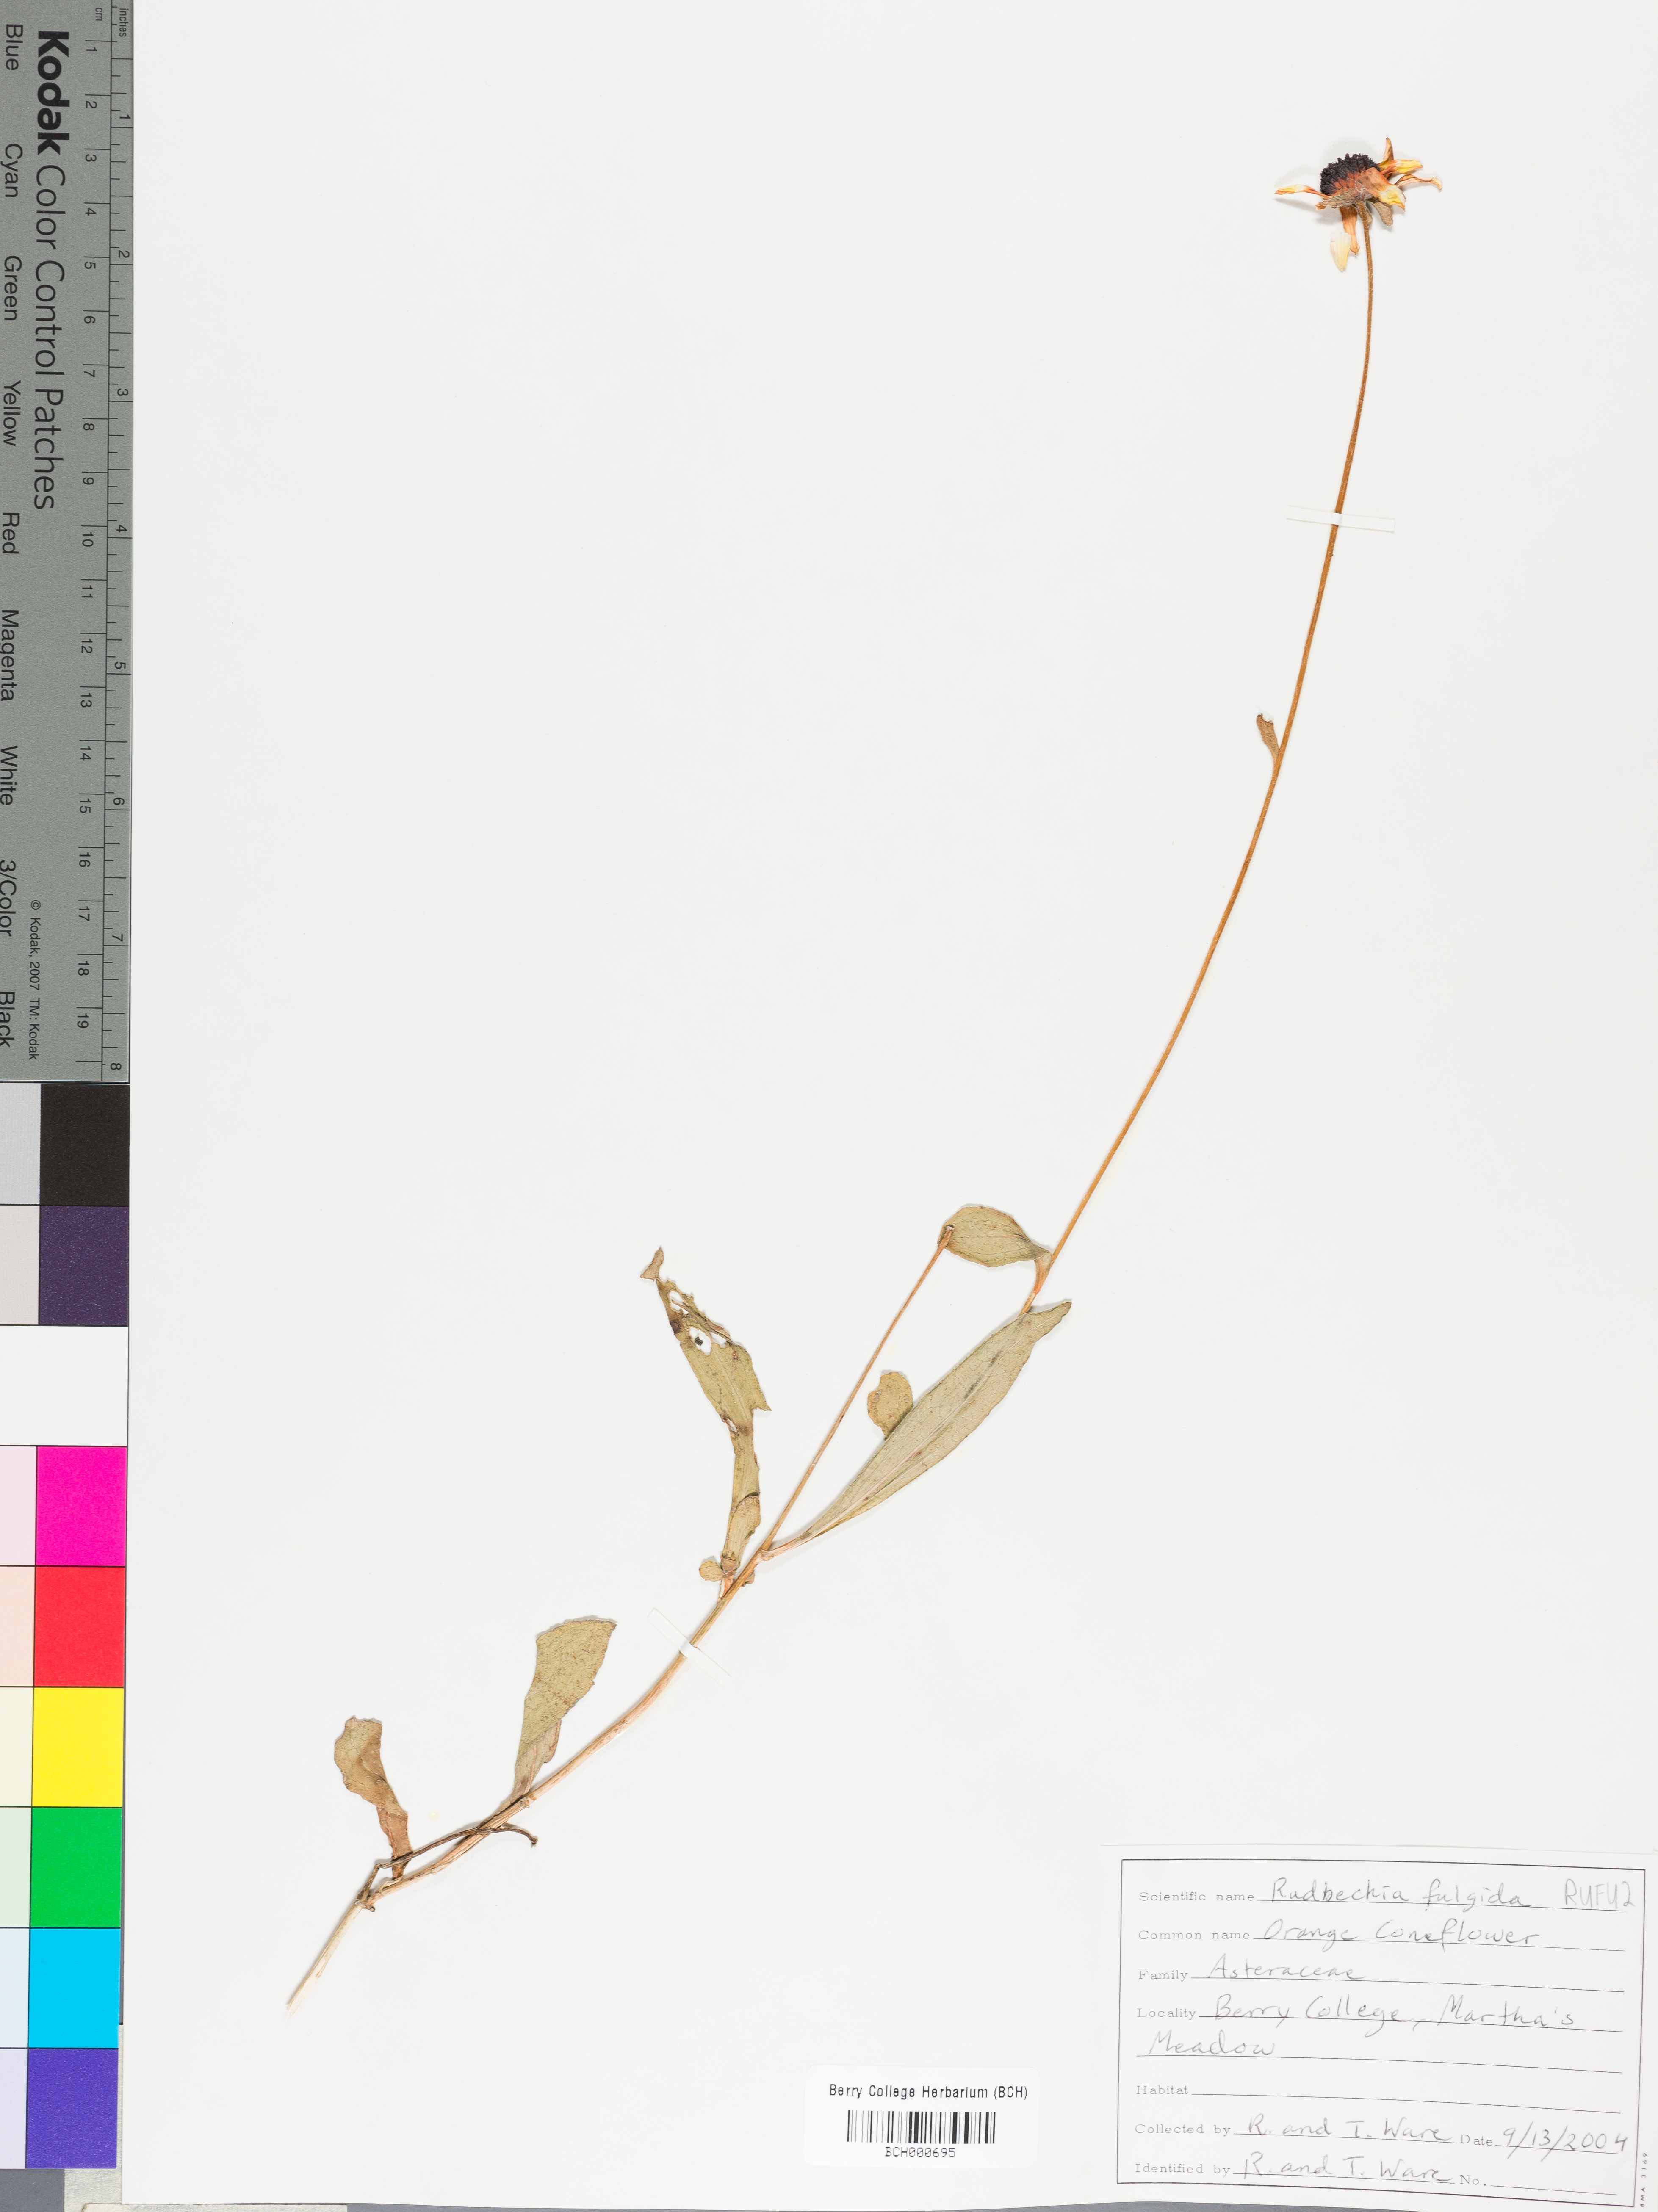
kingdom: Plantae
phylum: Tracheophyta
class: Magnoliopsida
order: Asterales
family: Asteraceae
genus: Rudbeckia
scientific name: Rudbeckia fulgida
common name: Perennial coneflower
